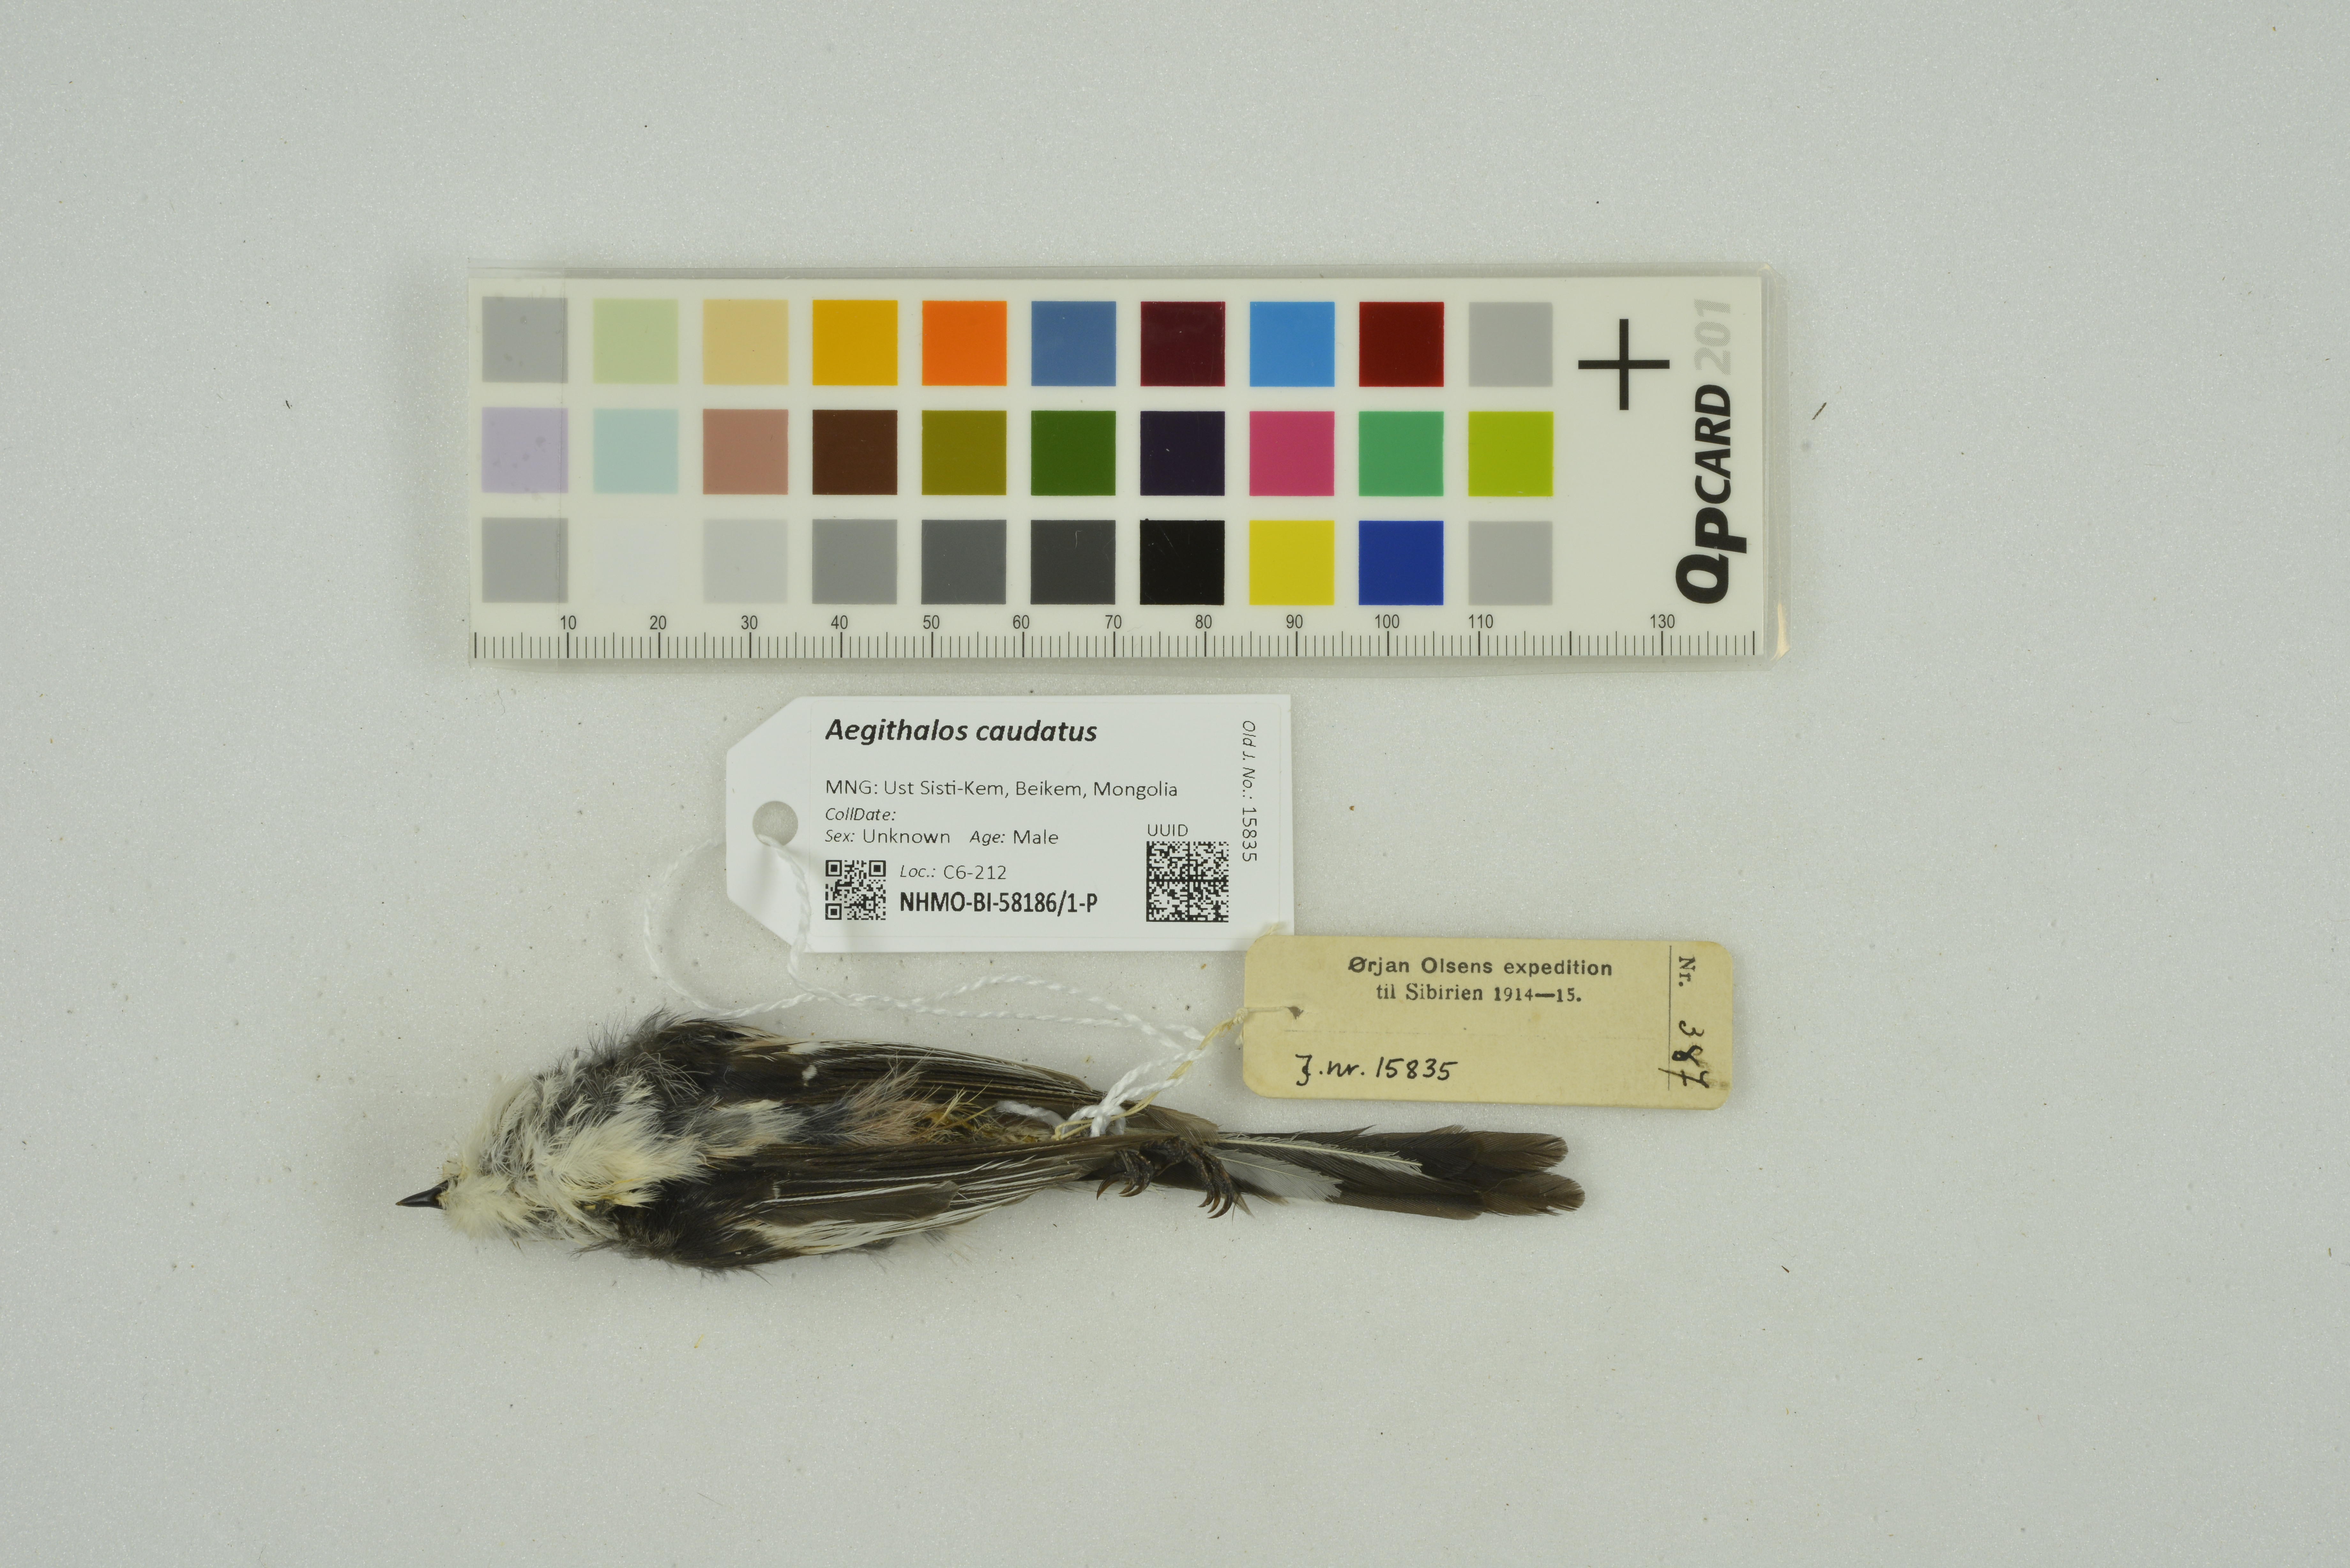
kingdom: Animalia
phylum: Chordata
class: Aves
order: Passeriformes
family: Aegithalidae
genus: Aegithalos
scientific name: Aegithalos caudatus
